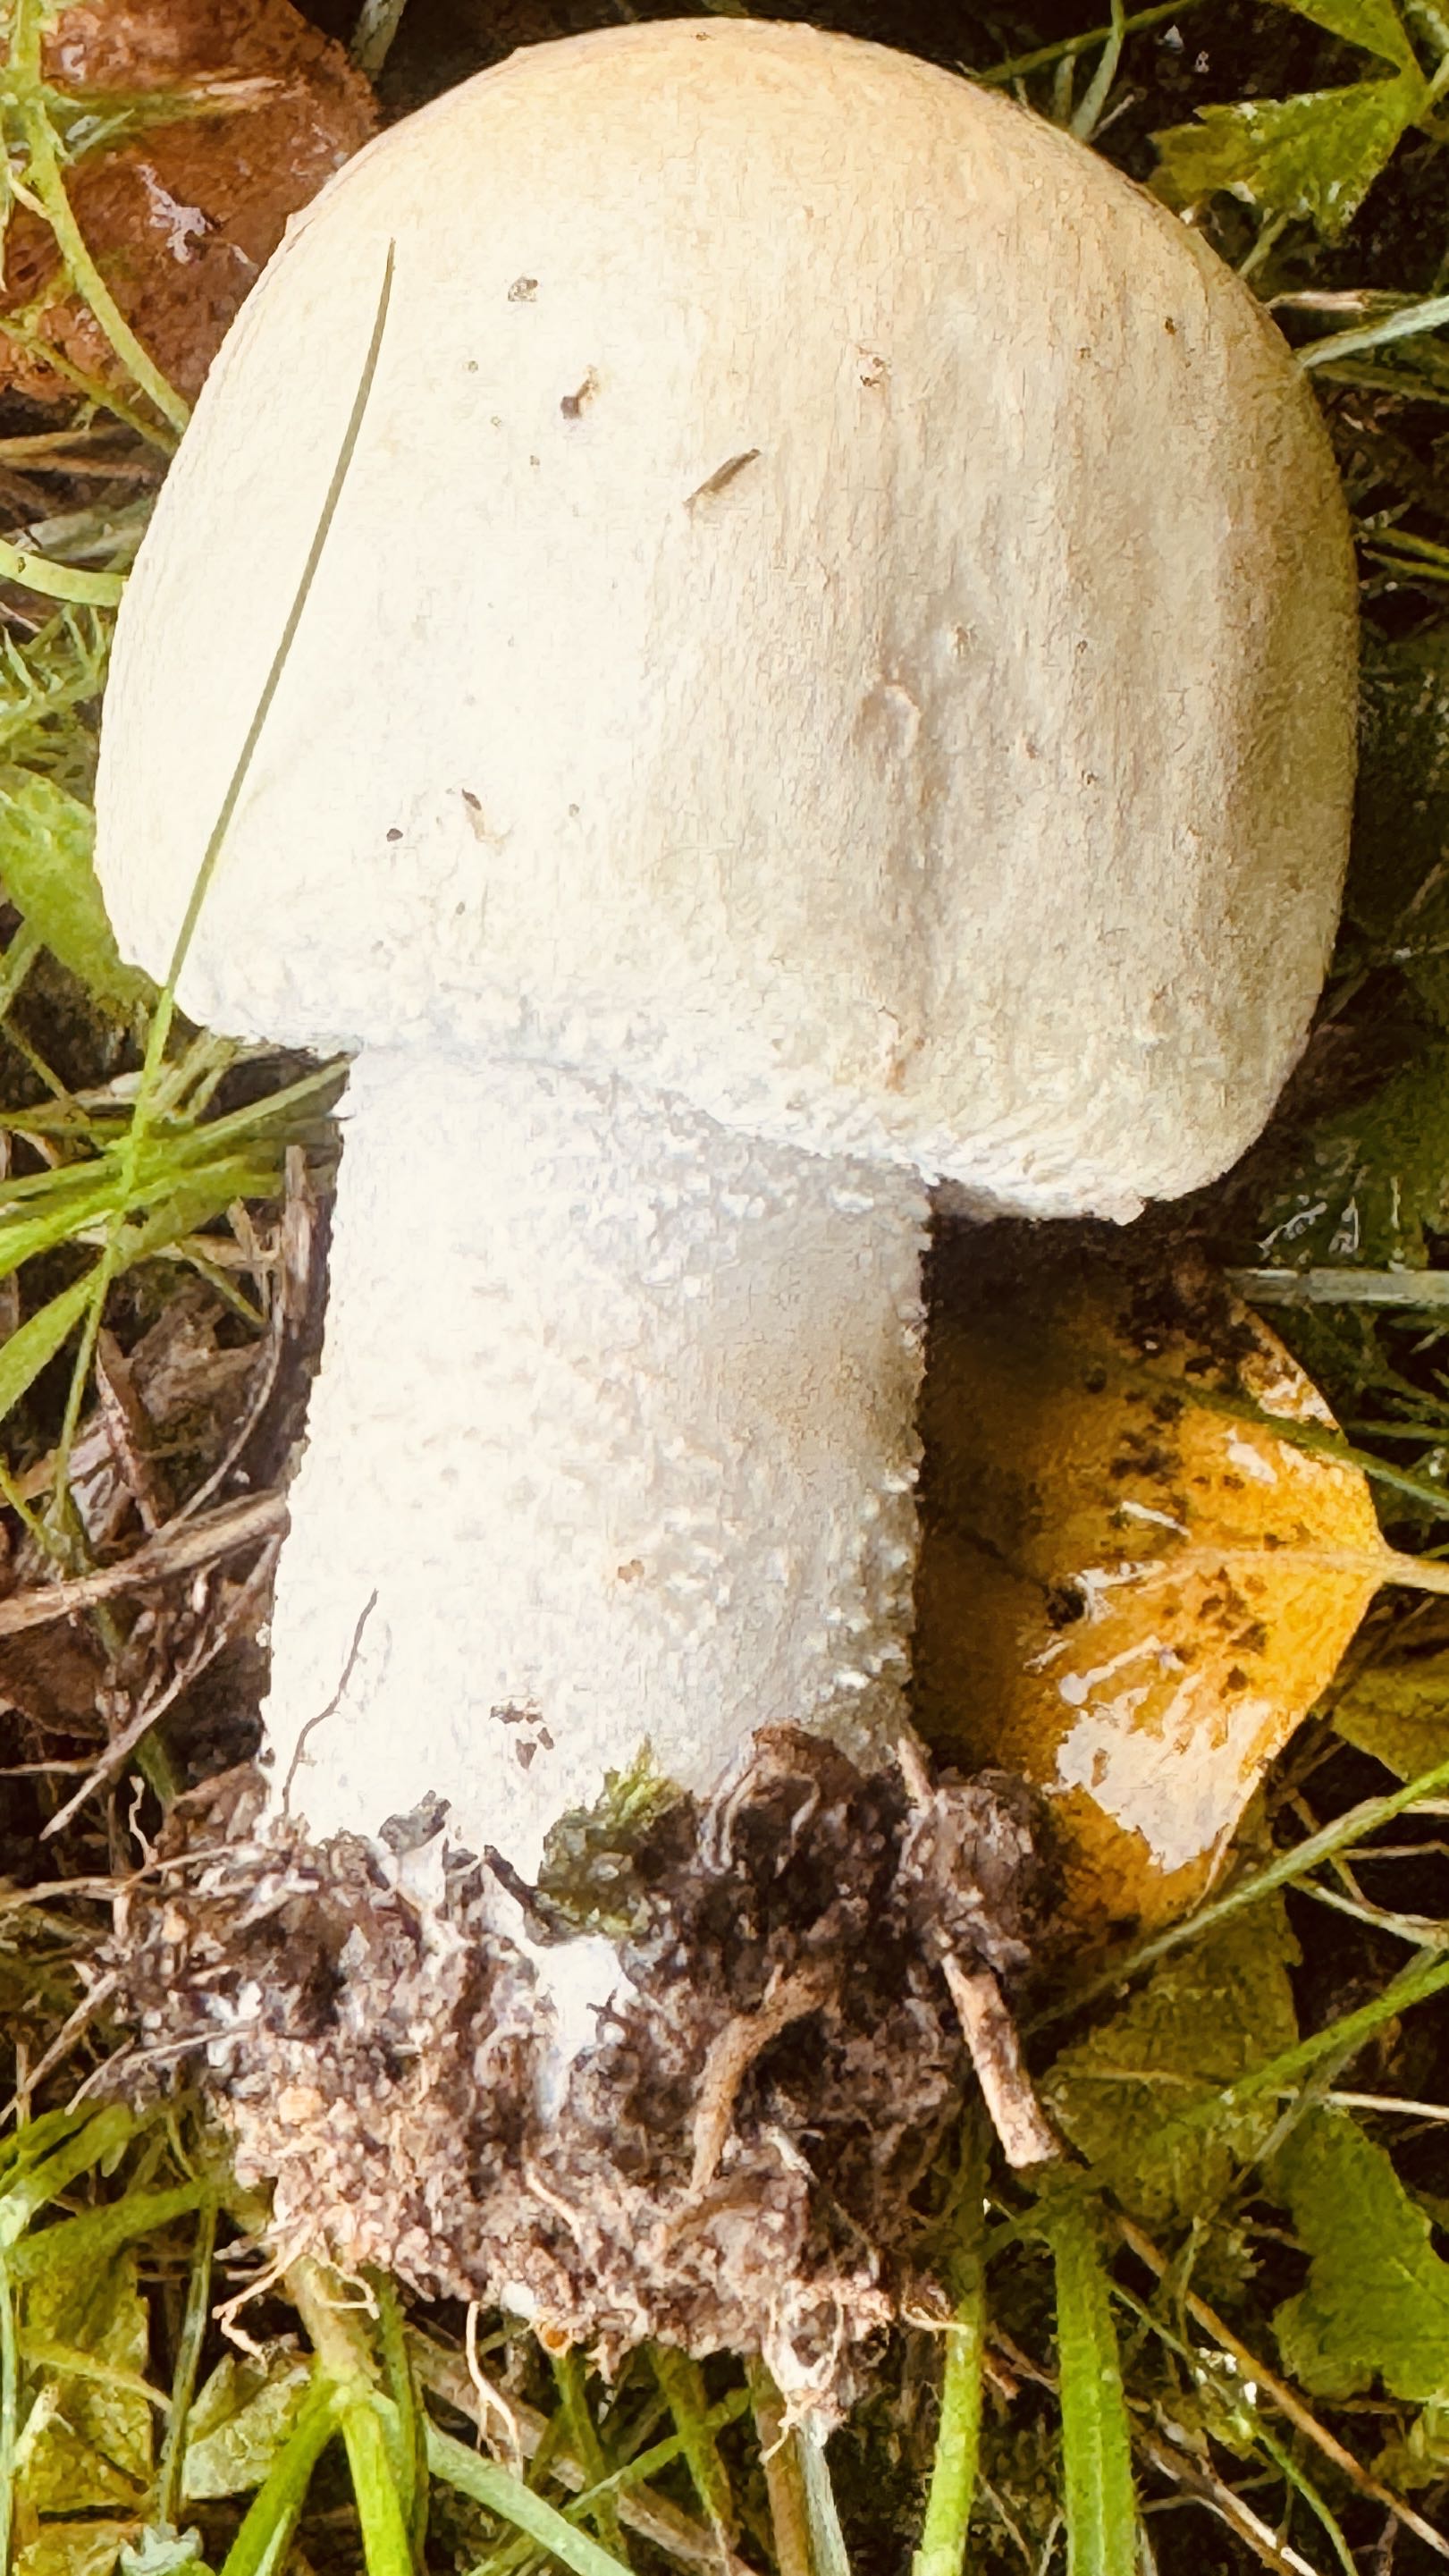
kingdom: Fungi
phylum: Basidiomycota
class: Agaricomycetes
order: Agaricales
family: Agaricaceae
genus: Agaricus
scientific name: Agaricus arvensis
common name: ager-champignon
